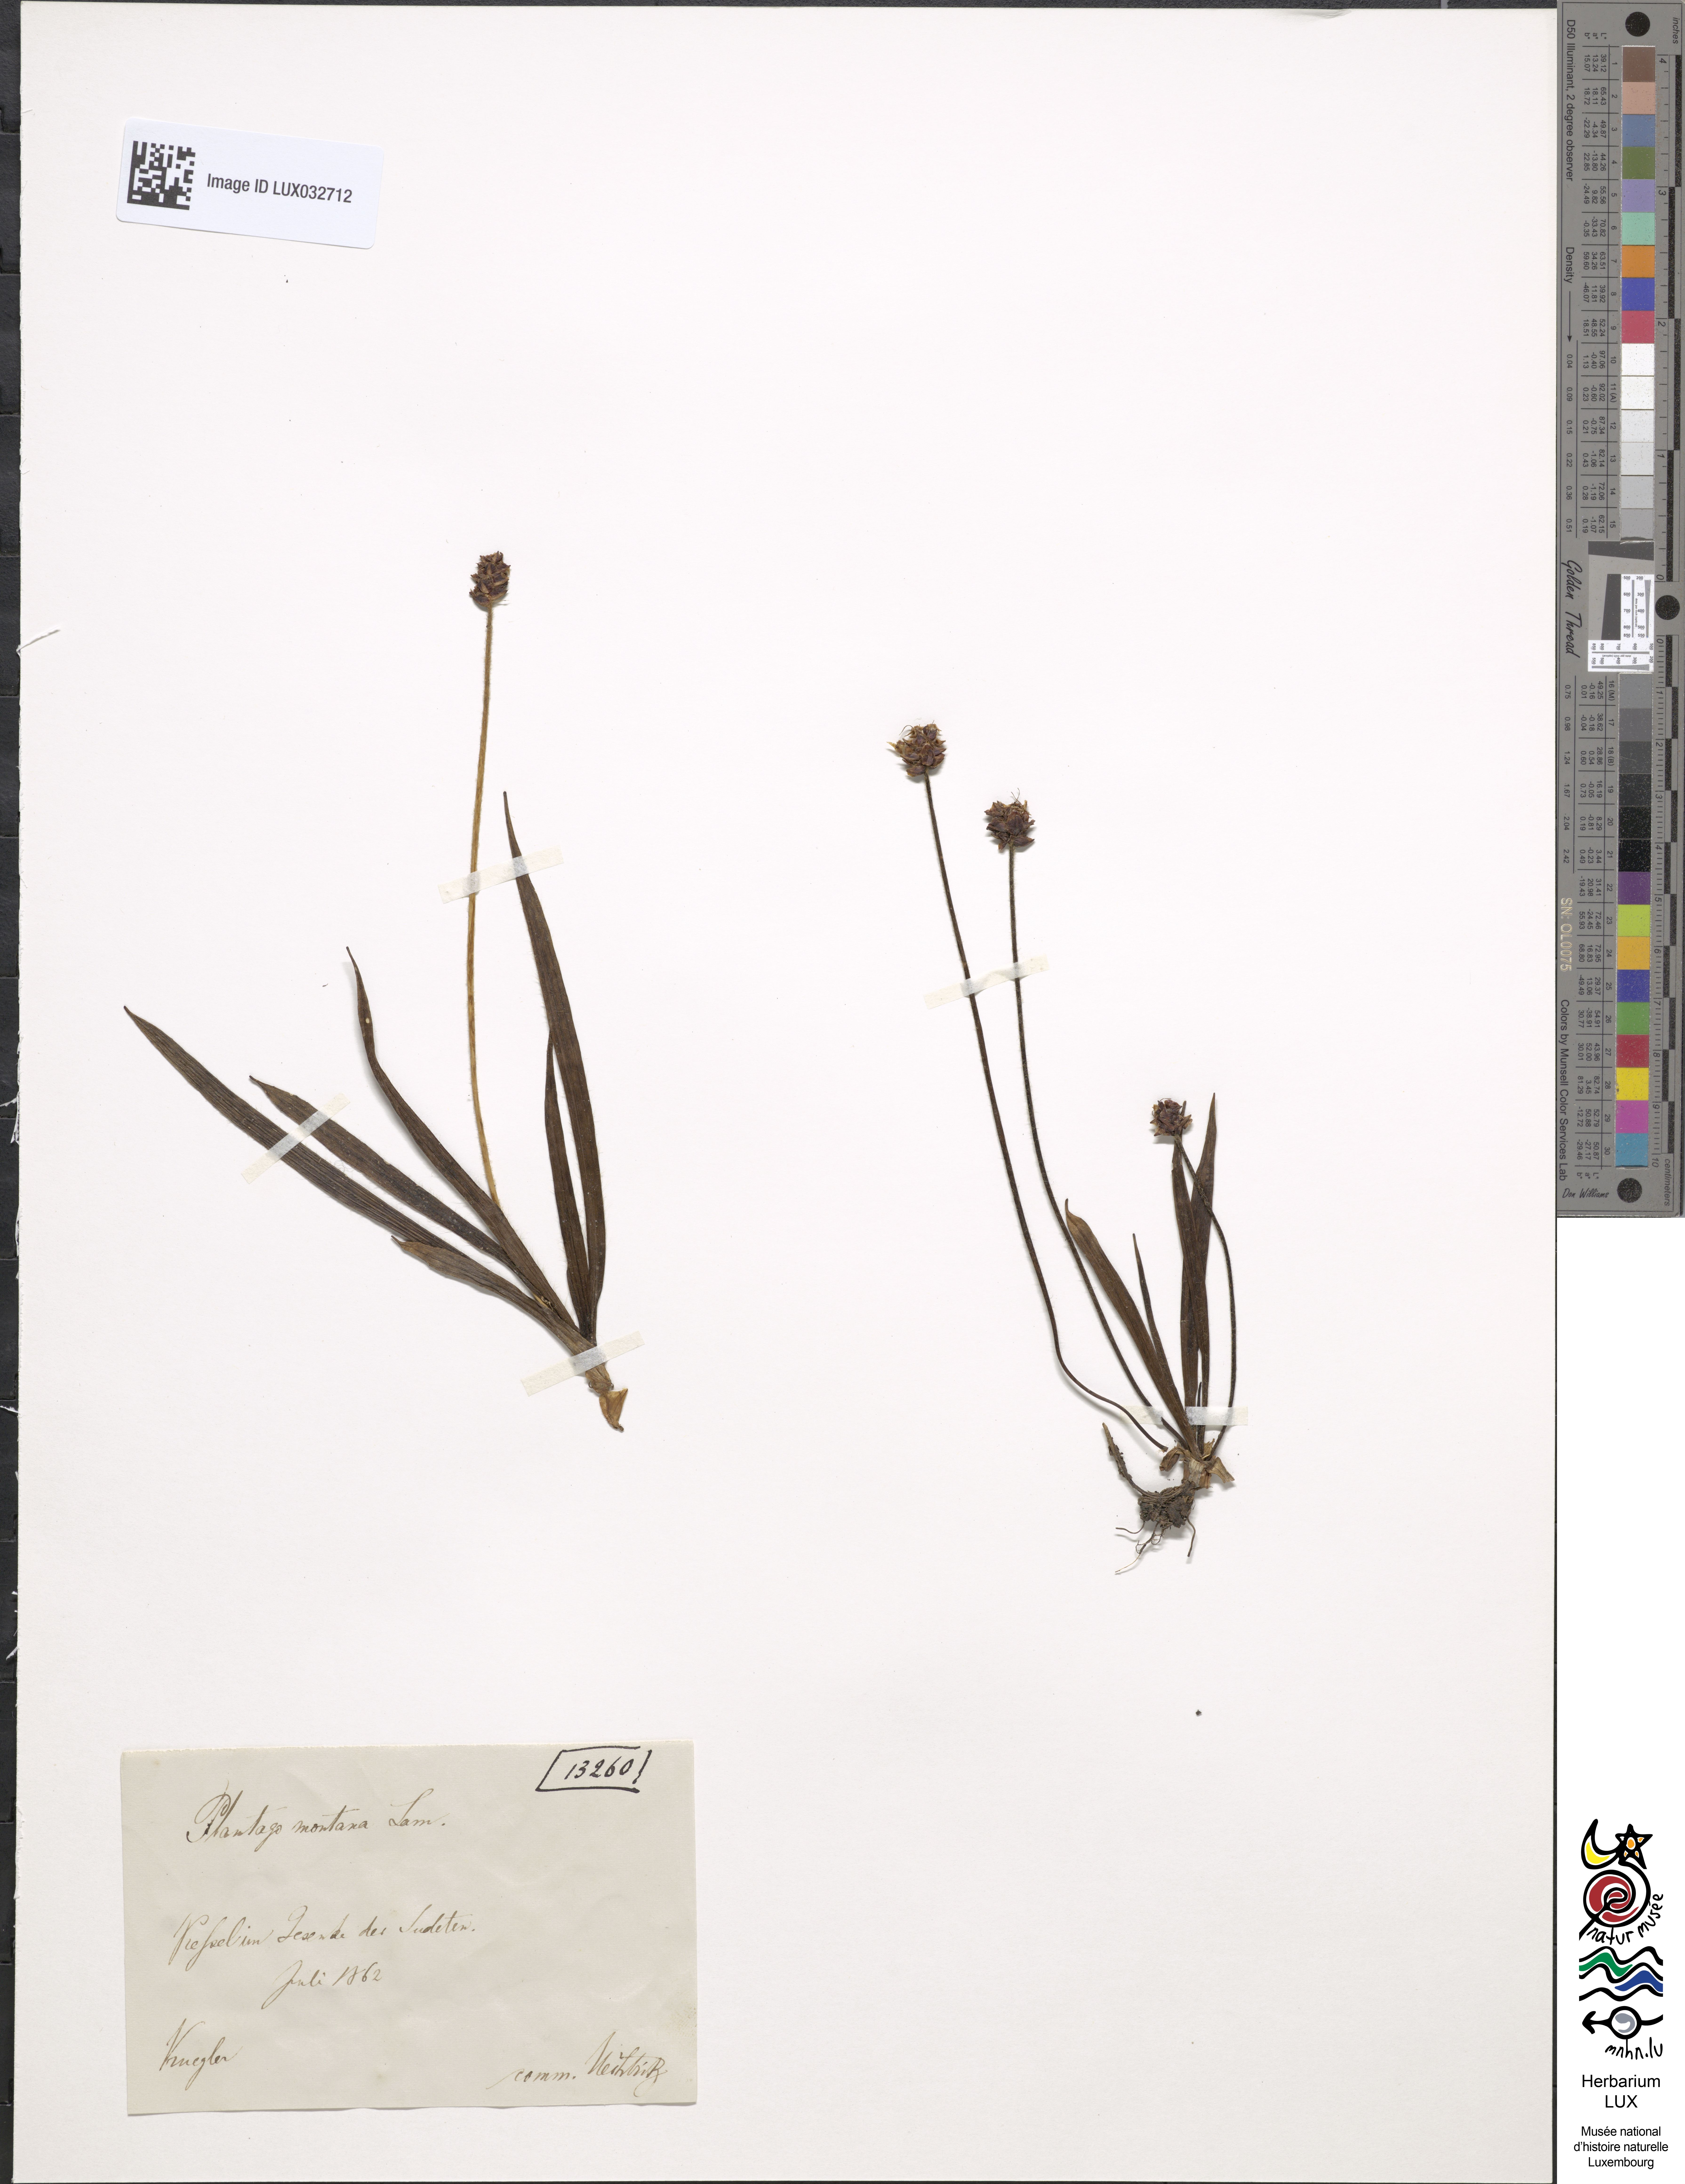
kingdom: Plantae
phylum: Tracheophyta
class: Magnoliopsida
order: Lamiales
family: Plantaginaceae
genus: Plantago
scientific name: Plantago atrata
